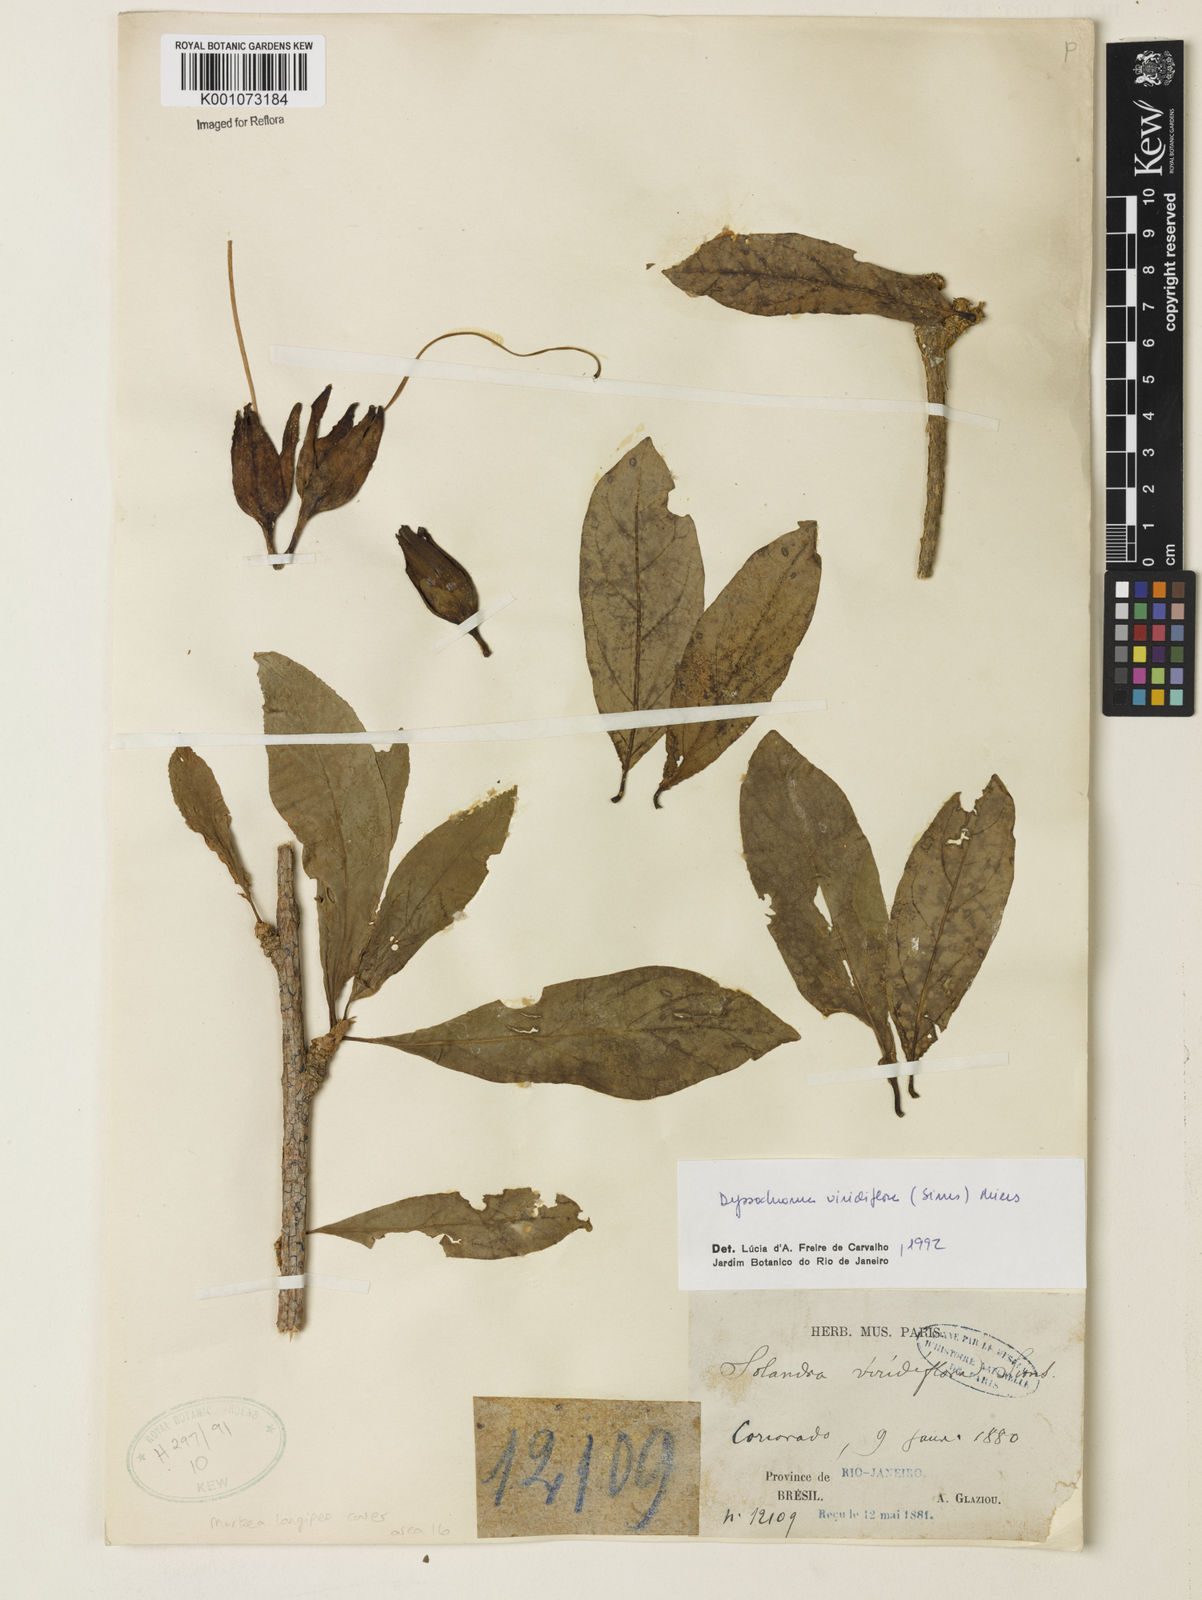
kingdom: Plantae
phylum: Tracheophyta
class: Magnoliopsida
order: Solanales
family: Solanaceae
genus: Dyssochroma
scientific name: Dyssochroma viridiflorum
